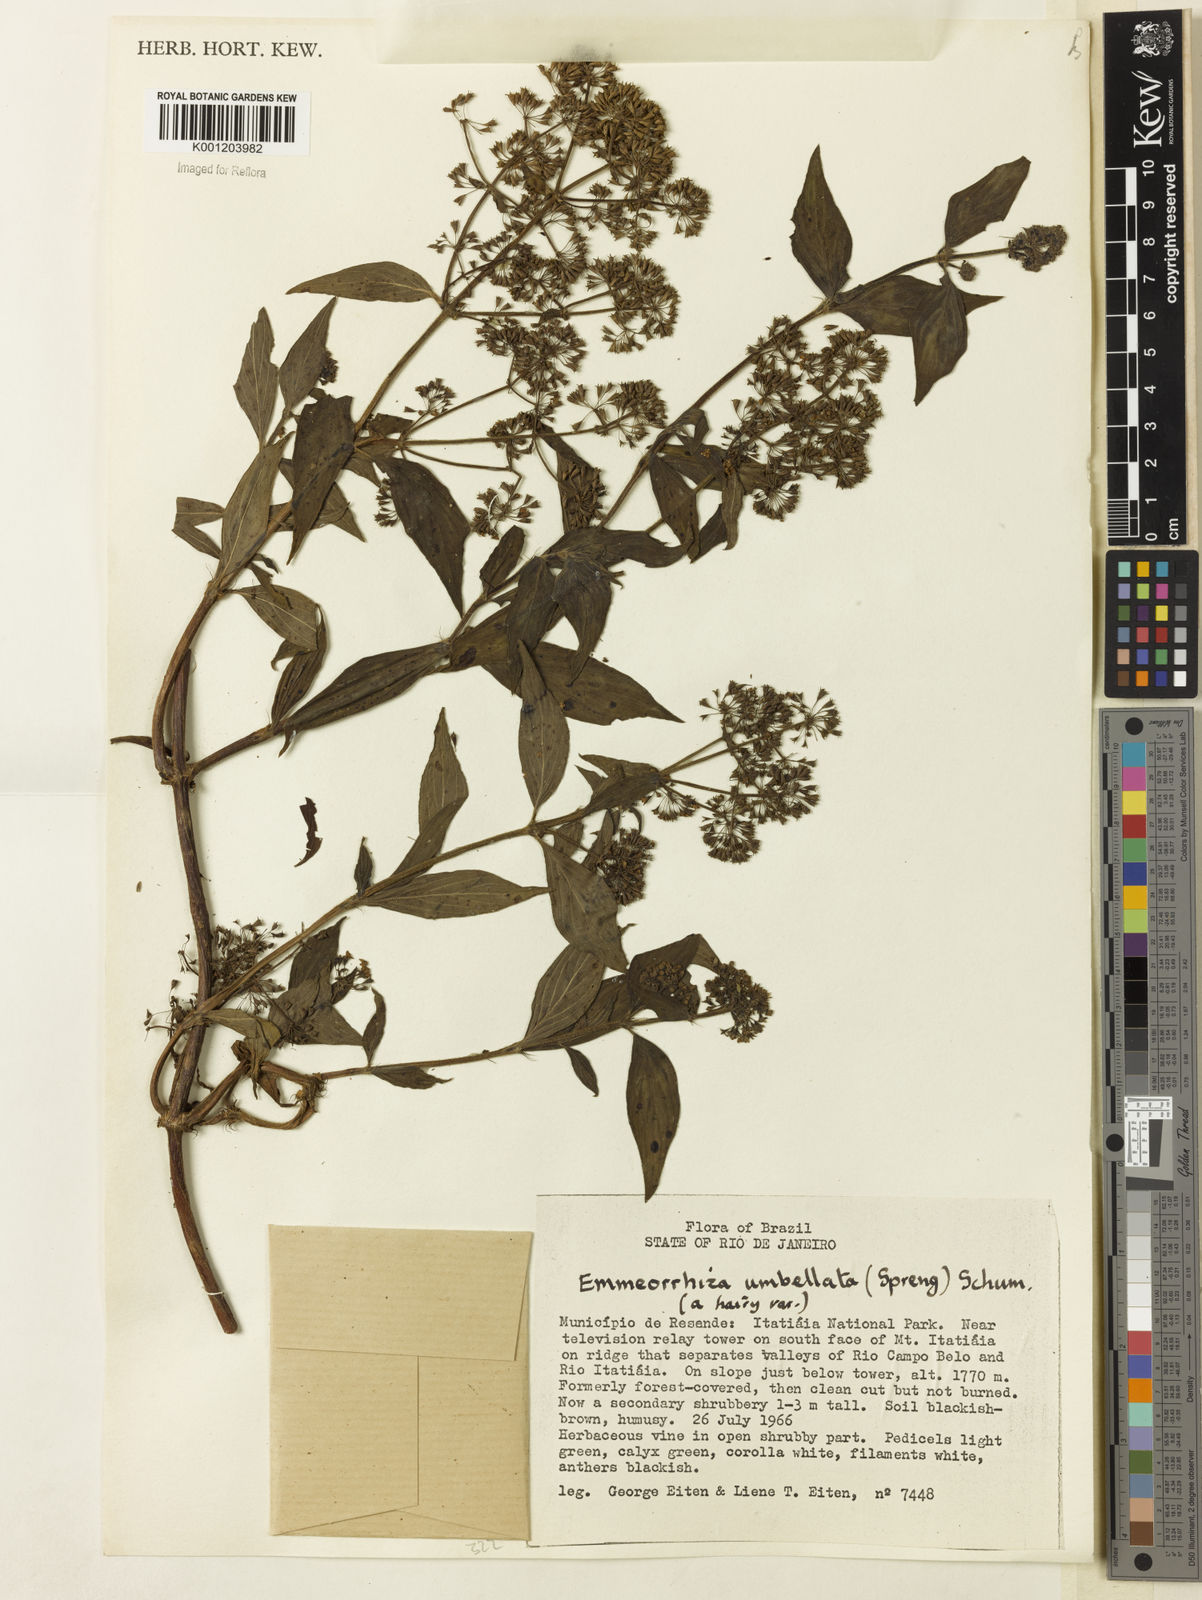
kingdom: Plantae
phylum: Tracheophyta
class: Magnoliopsida
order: Gentianales
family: Rubiaceae
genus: Emmeorhiza
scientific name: Emmeorhiza umbellata
